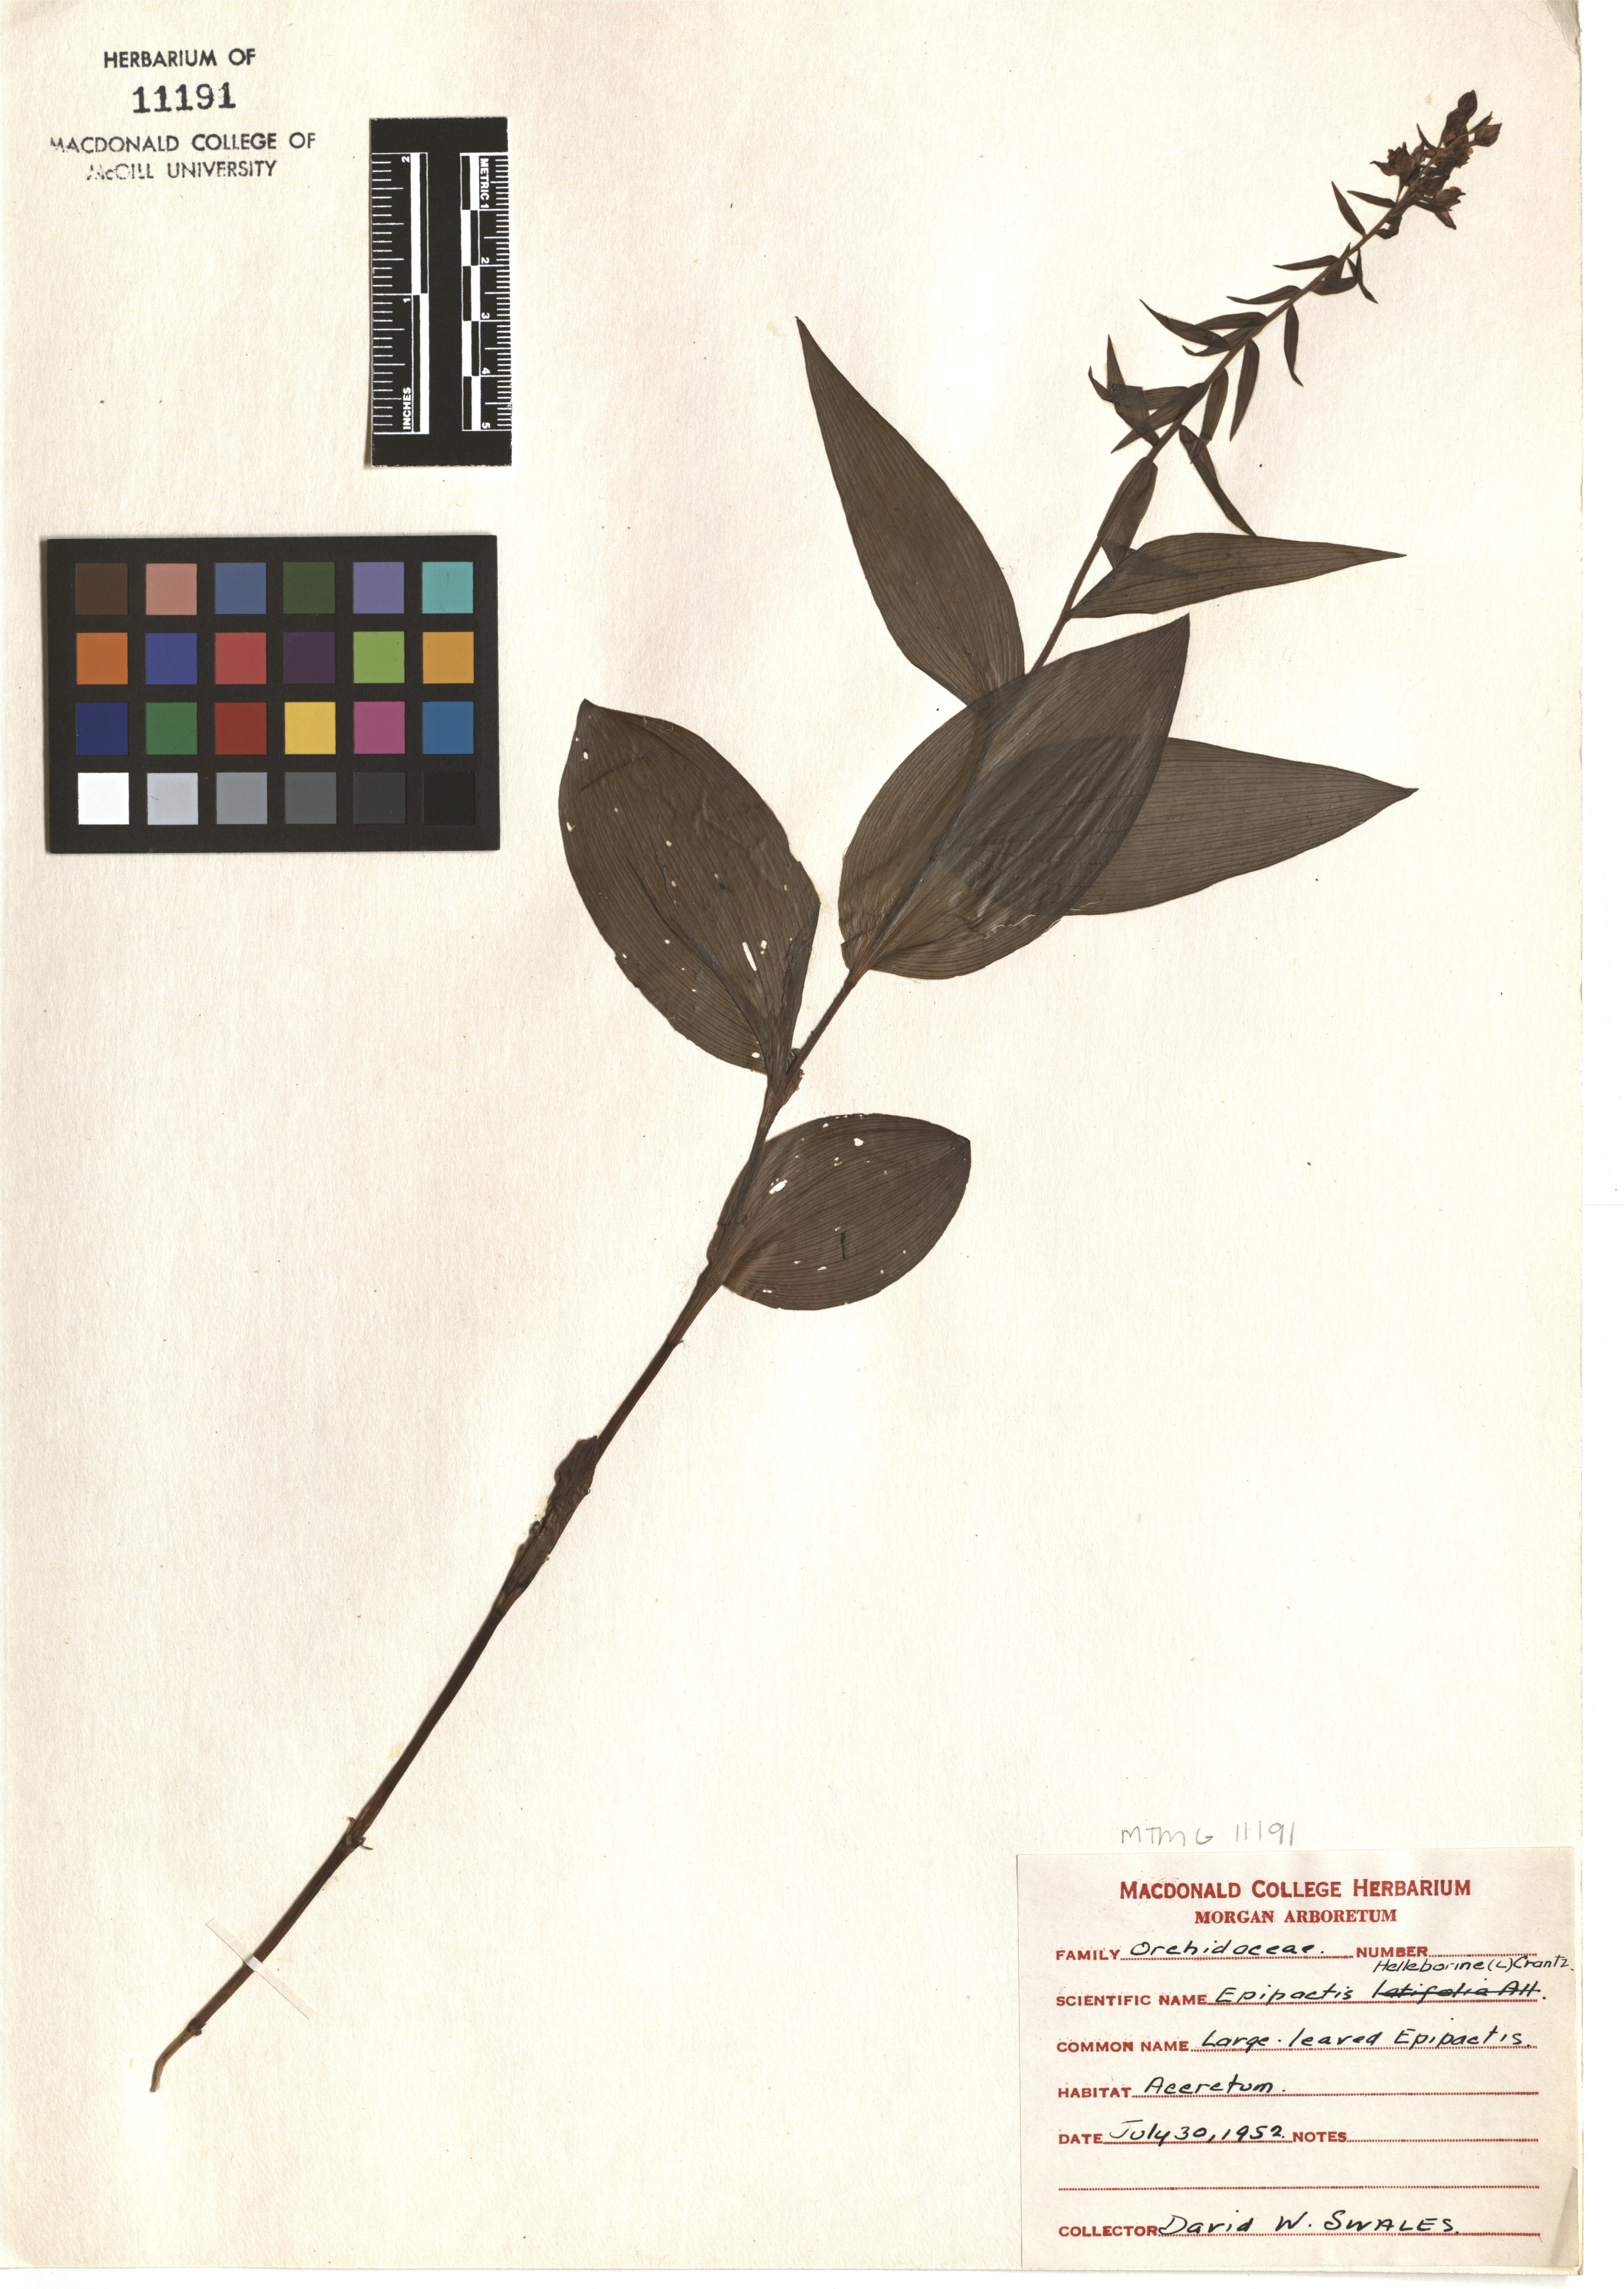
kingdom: Plantae
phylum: Tracheophyta
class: Liliopsida
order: Asparagales
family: Orchidaceae
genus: Epipactis
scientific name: Epipactis helleborine
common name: Broad-leaved helleborine
